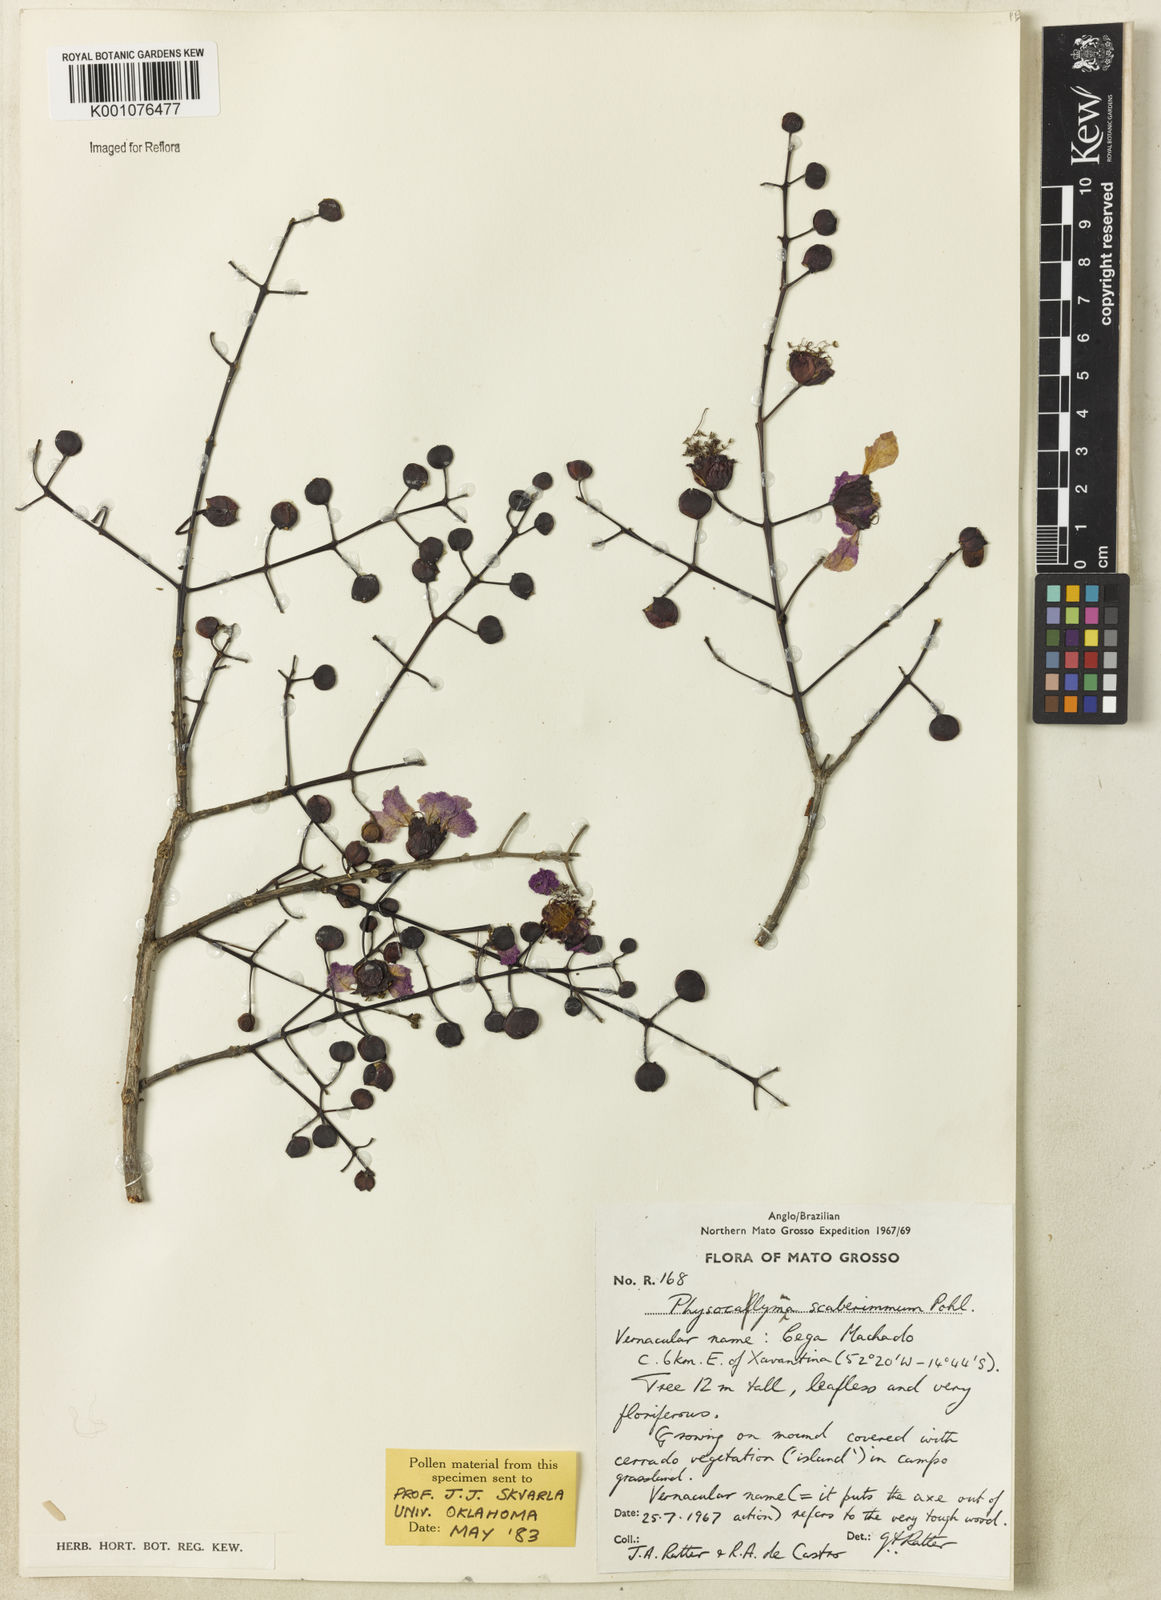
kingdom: Plantae
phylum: Tracheophyta
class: Magnoliopsida
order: Myrtales
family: Lythraceae
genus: Physocalymma
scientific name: Physocalymma scaberrimum
